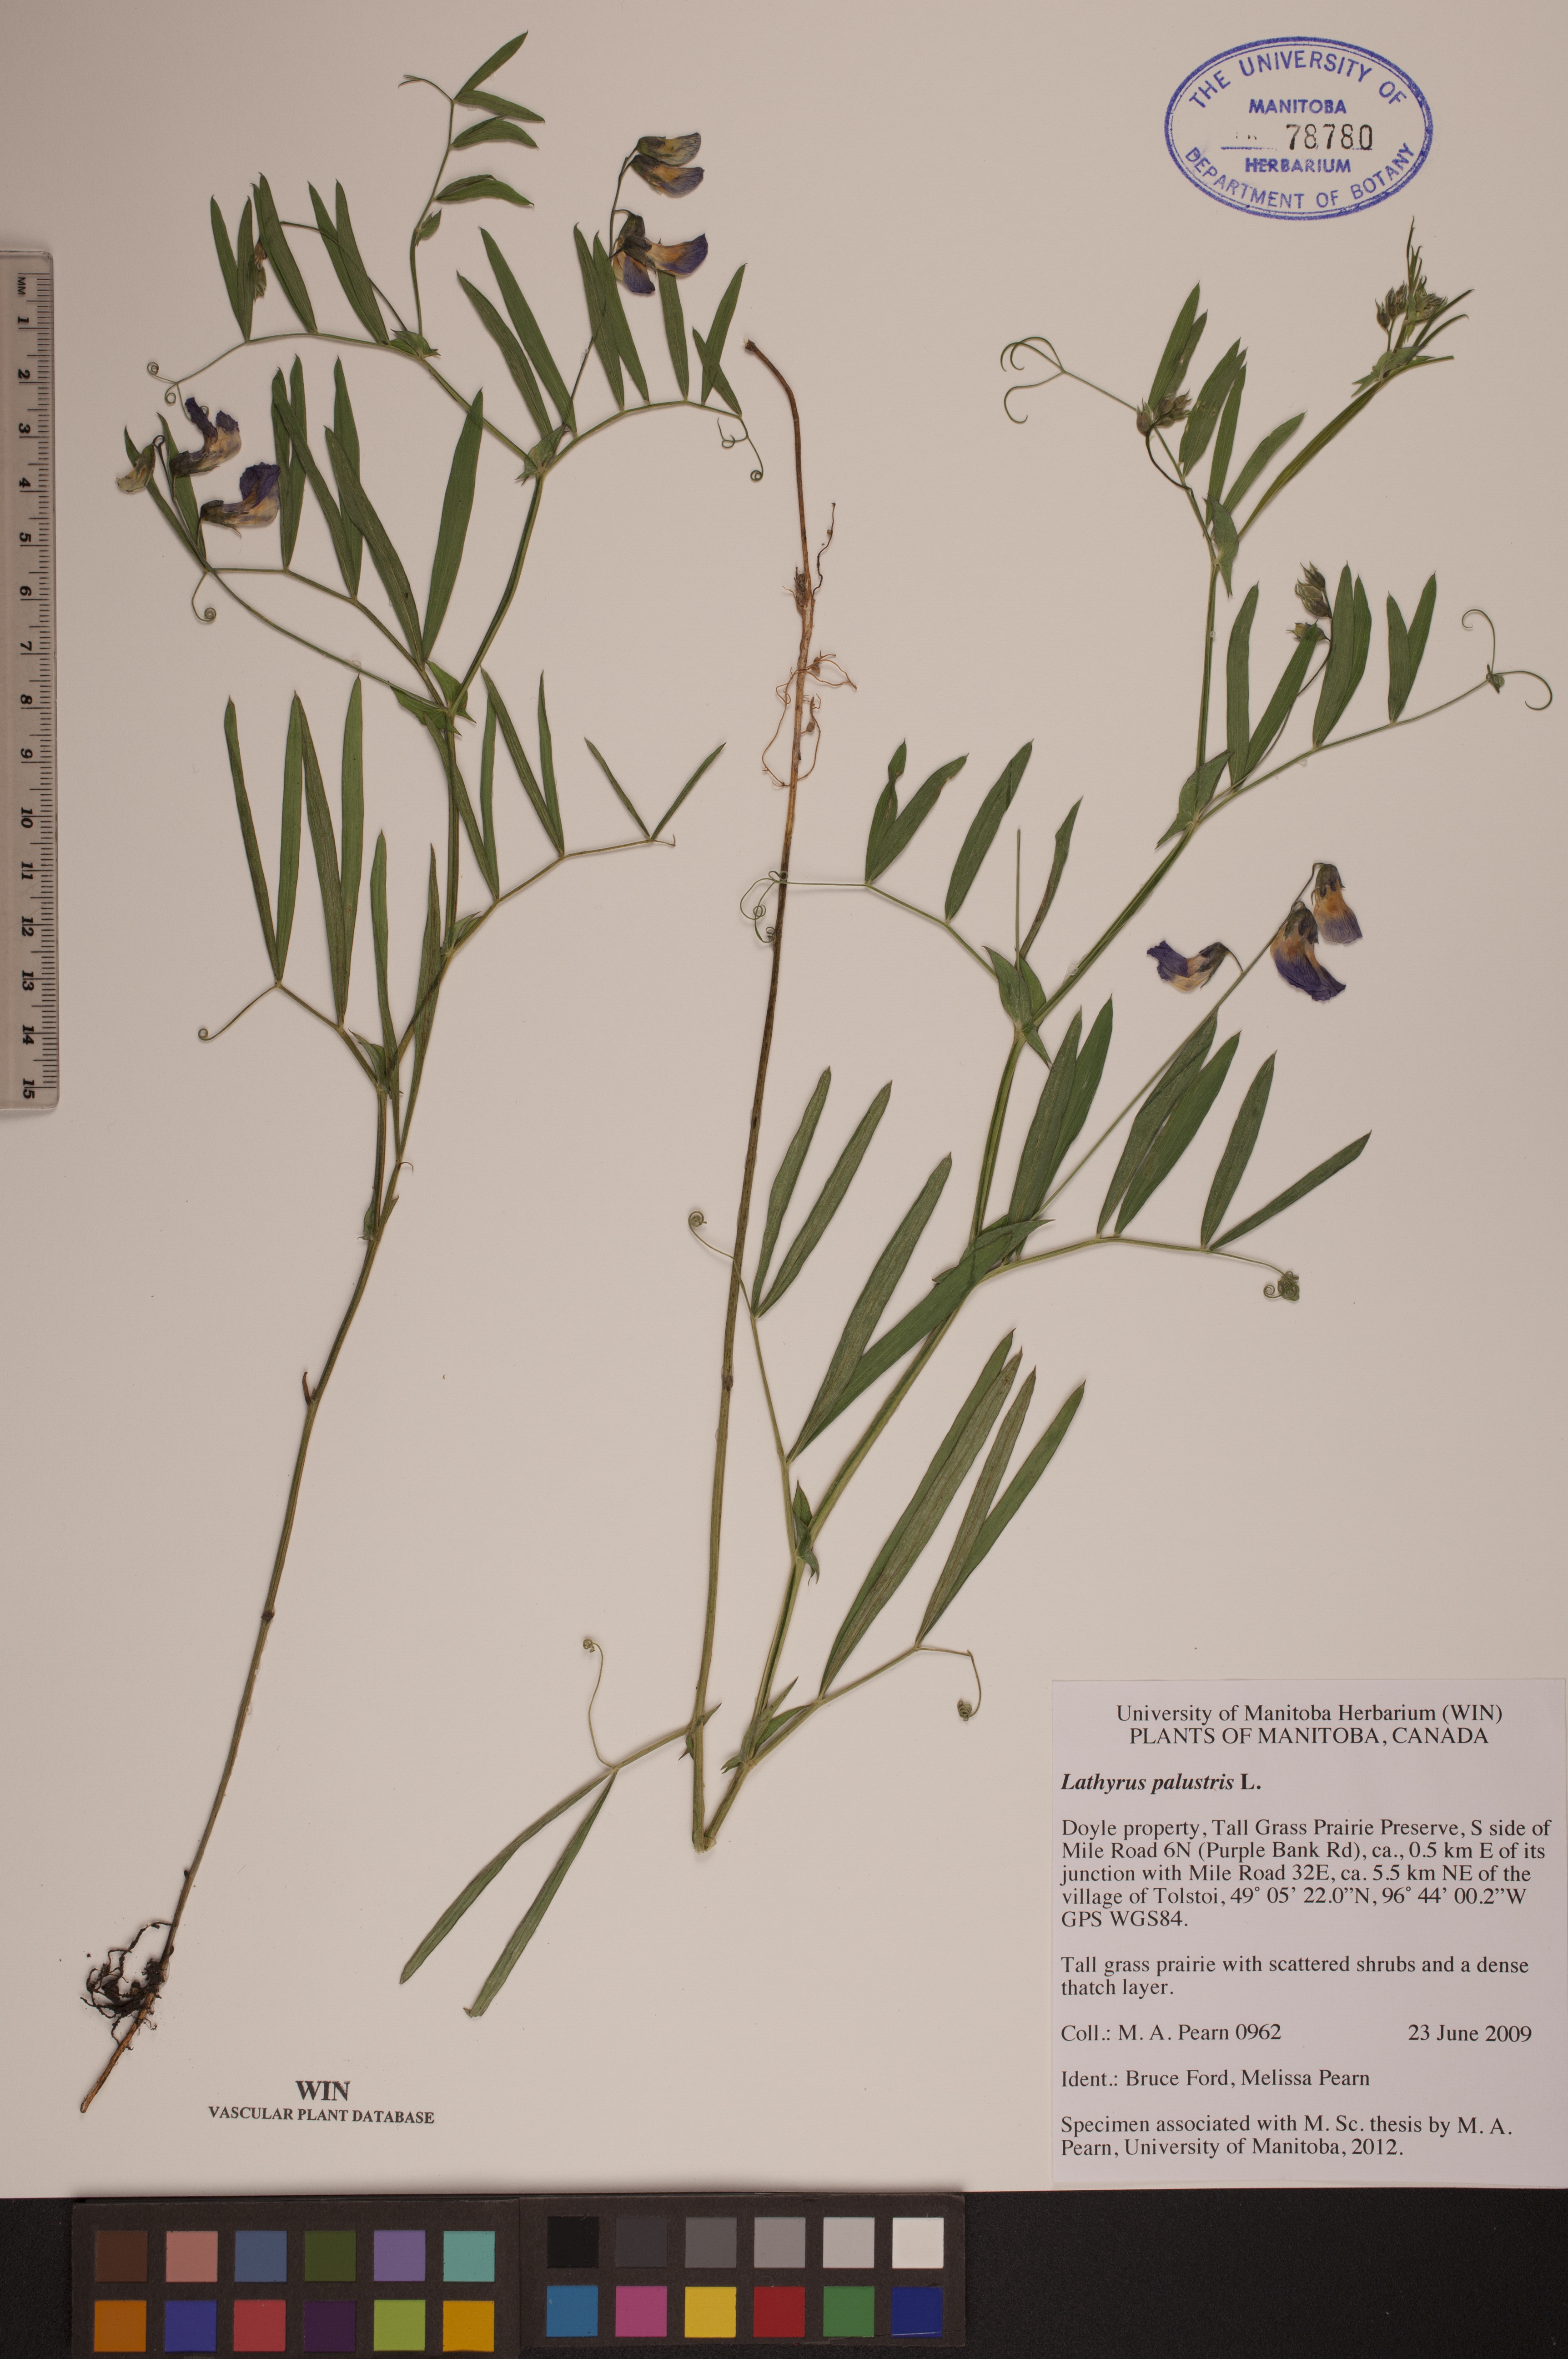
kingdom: Plantae
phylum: Tracheophyta
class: Magnoliopsida
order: Fabales
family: Fabaceae
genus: Lathyrus
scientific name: Lathyrus palustris
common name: Marsh pea
